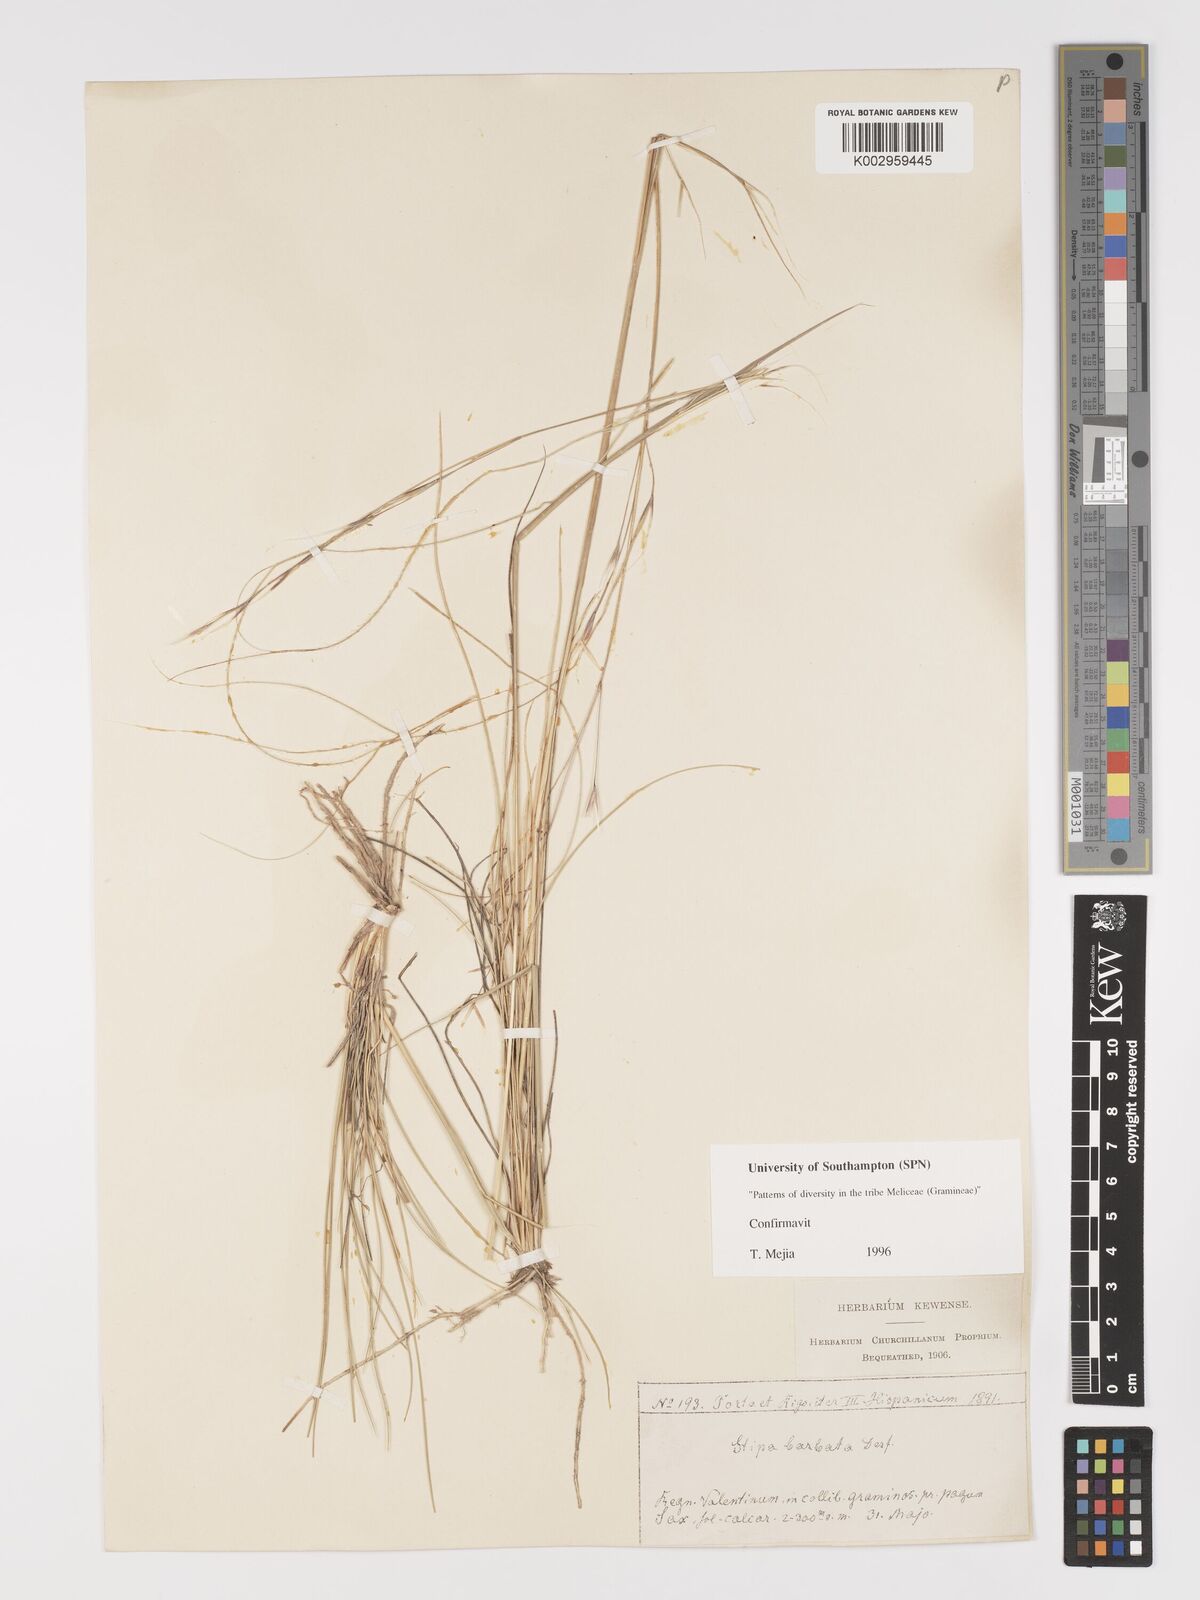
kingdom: Plantae
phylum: Tracheophyta
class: Liliopsida
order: Poales
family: Poaceae
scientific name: Poaceae
